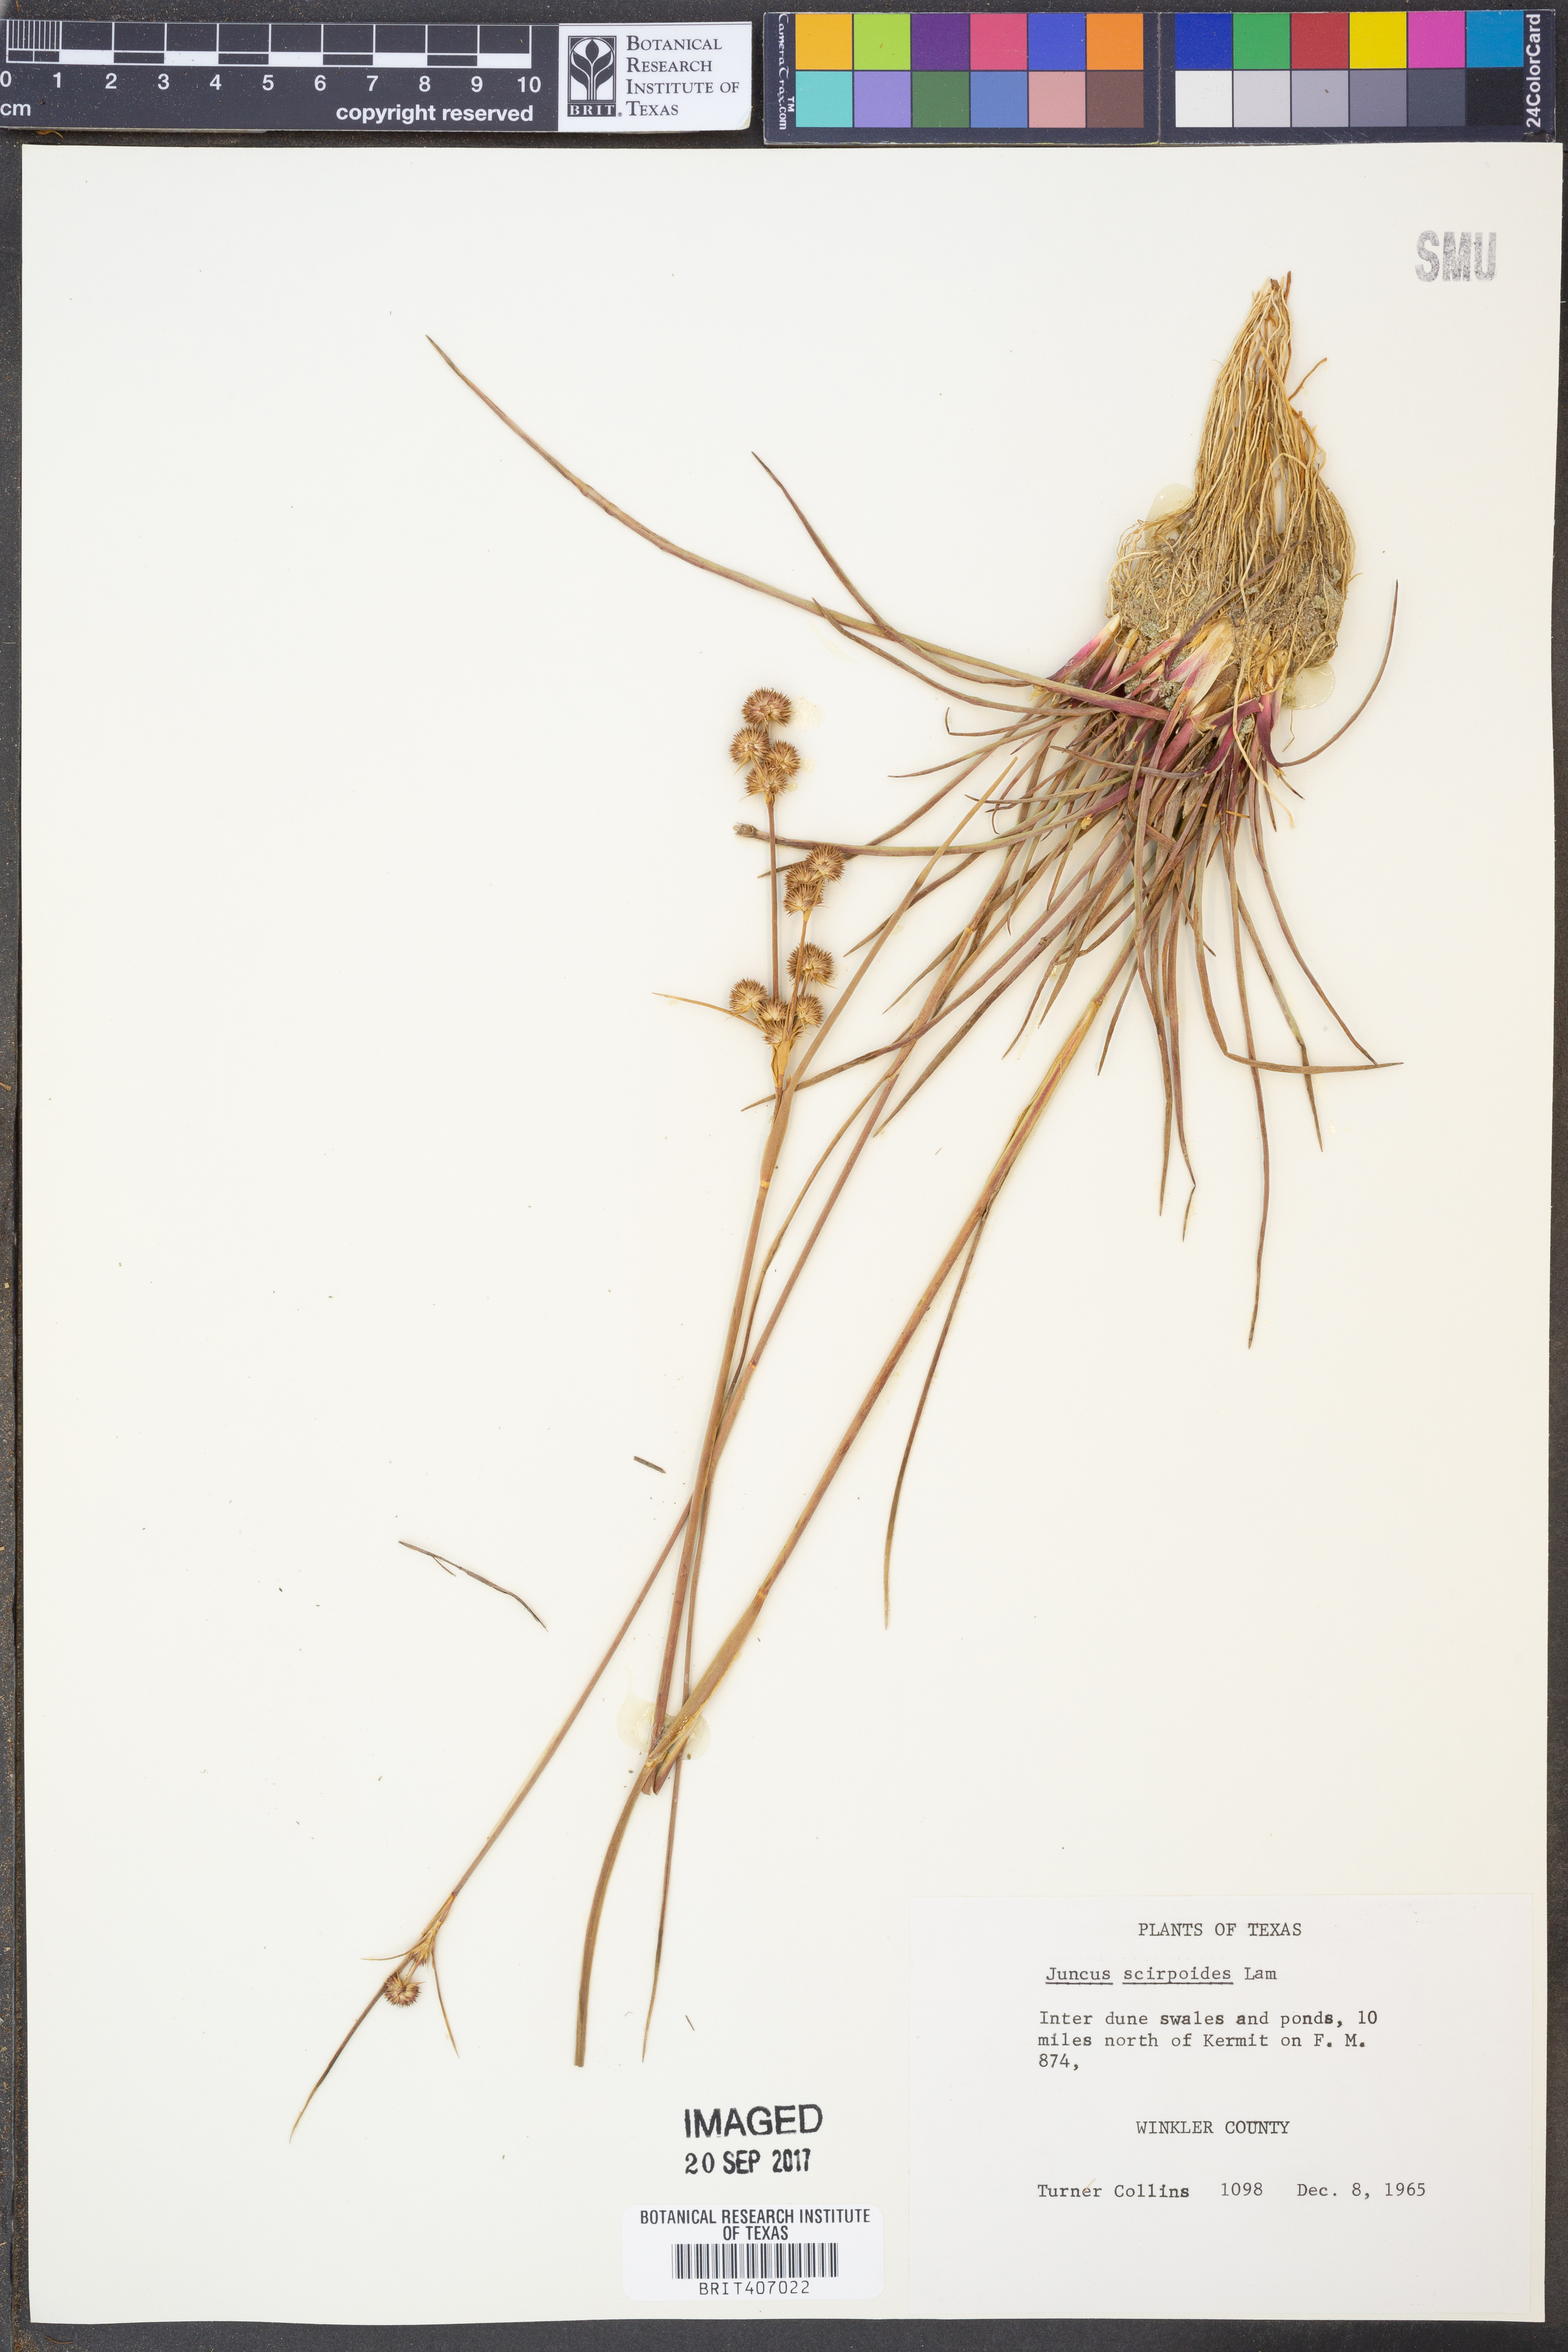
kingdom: Plantae
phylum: Tracheophyta
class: Liliopsida
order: Poales
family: Juncaceae
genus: Juncus
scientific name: Juncus scirpoides
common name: Needlepod rush
